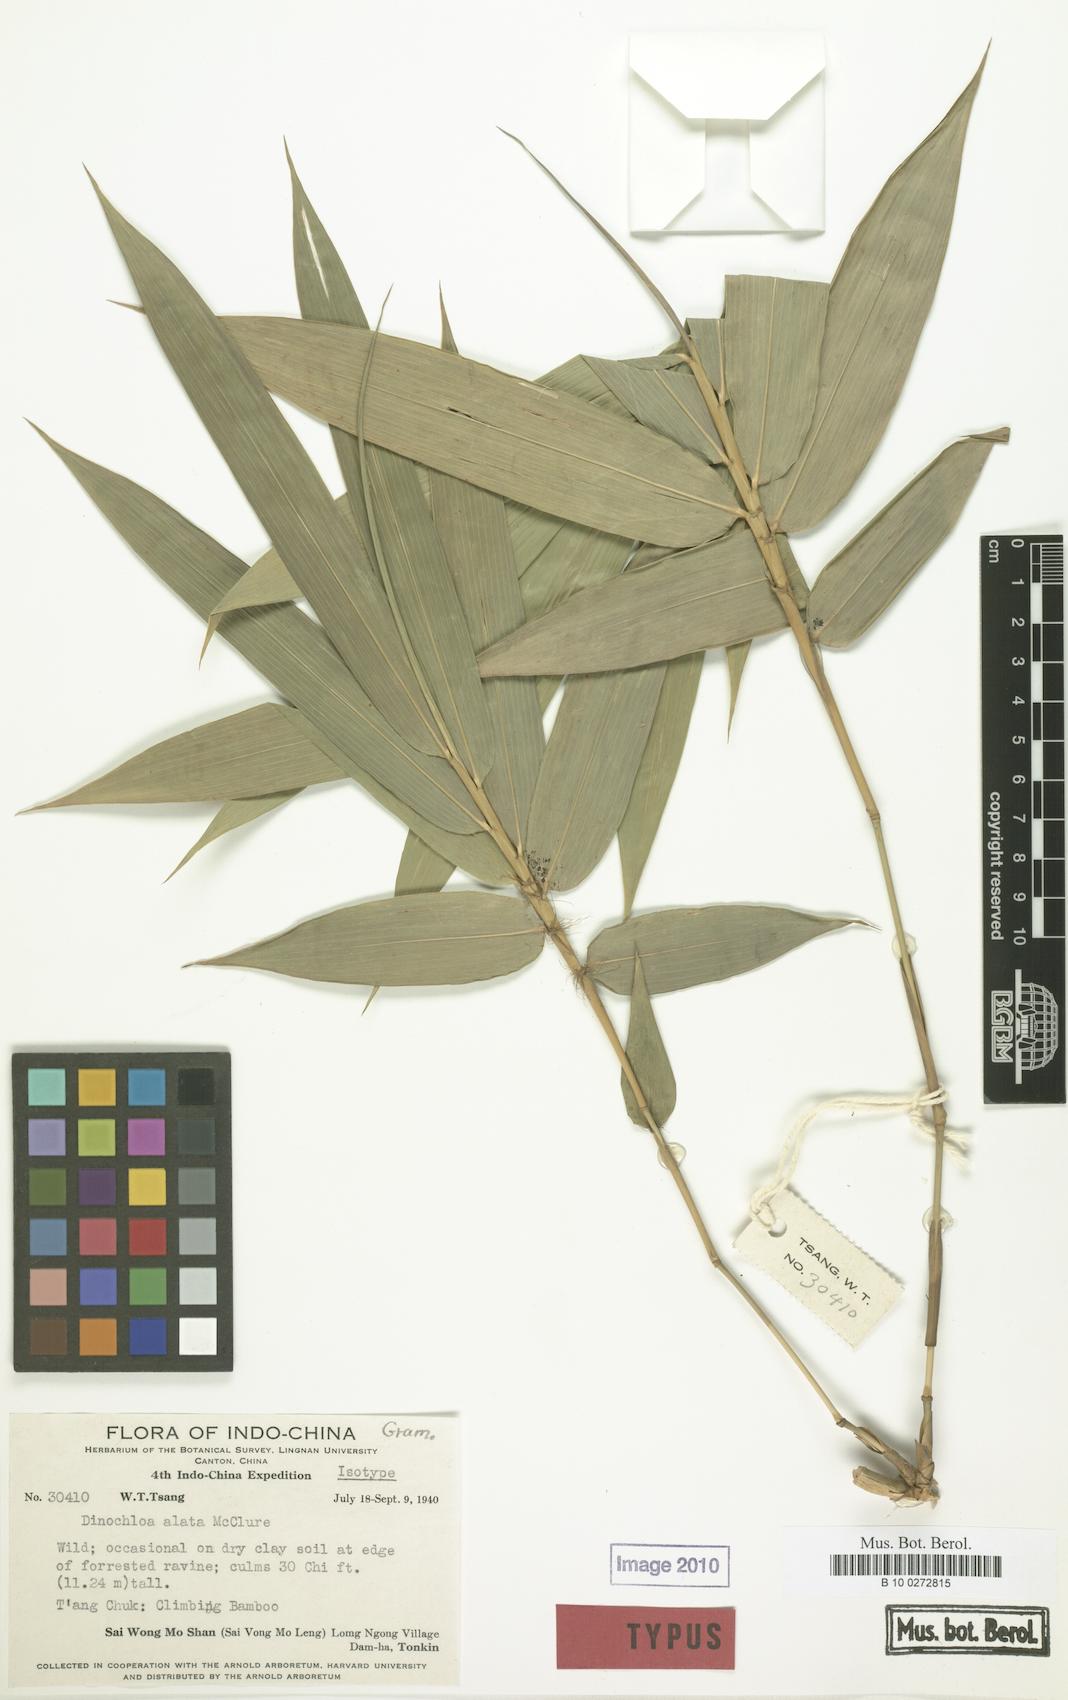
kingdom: Plantae
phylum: Tracheophyta
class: Liliopsida
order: Poales
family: Poaceae
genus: Dinochloa
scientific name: Dinochloa alata
